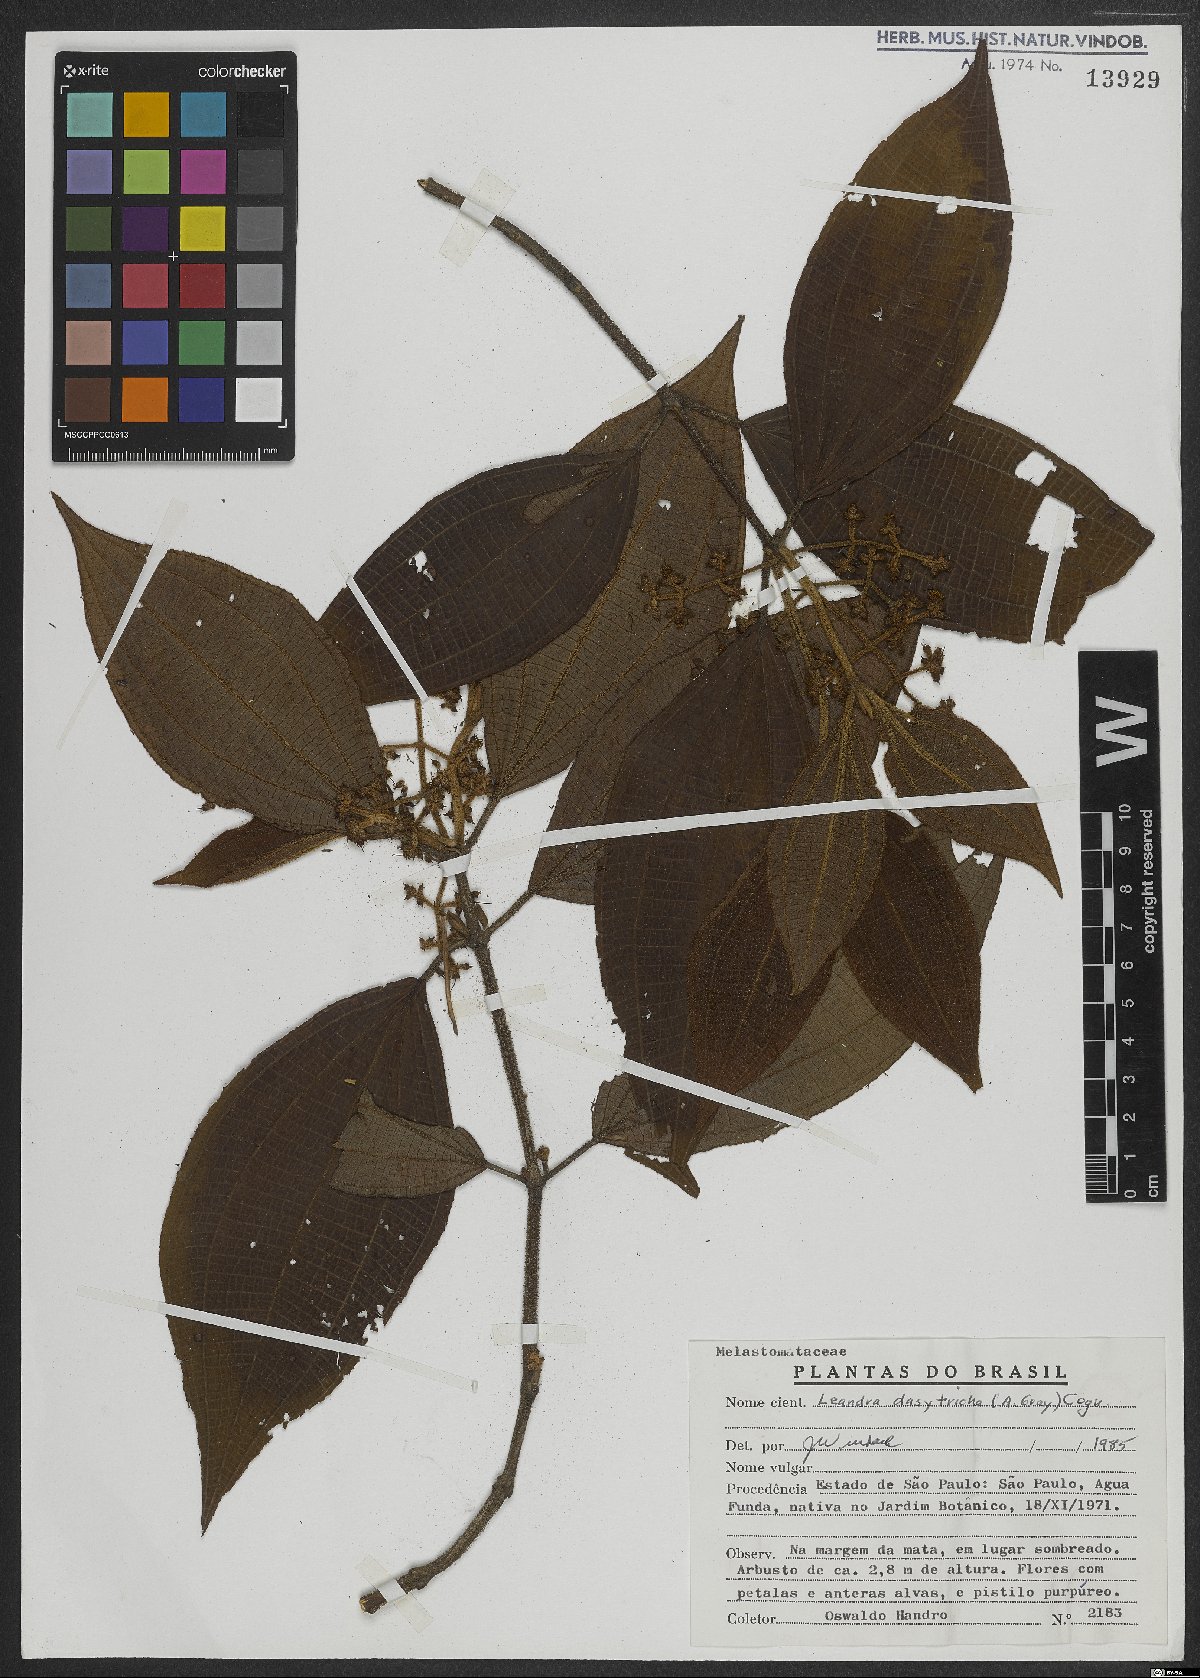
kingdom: Plantae
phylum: Tracheophyta
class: Magnoliopsida
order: Myrtales
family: Melastomataceae
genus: Miconia
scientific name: Miconia dasytricha
